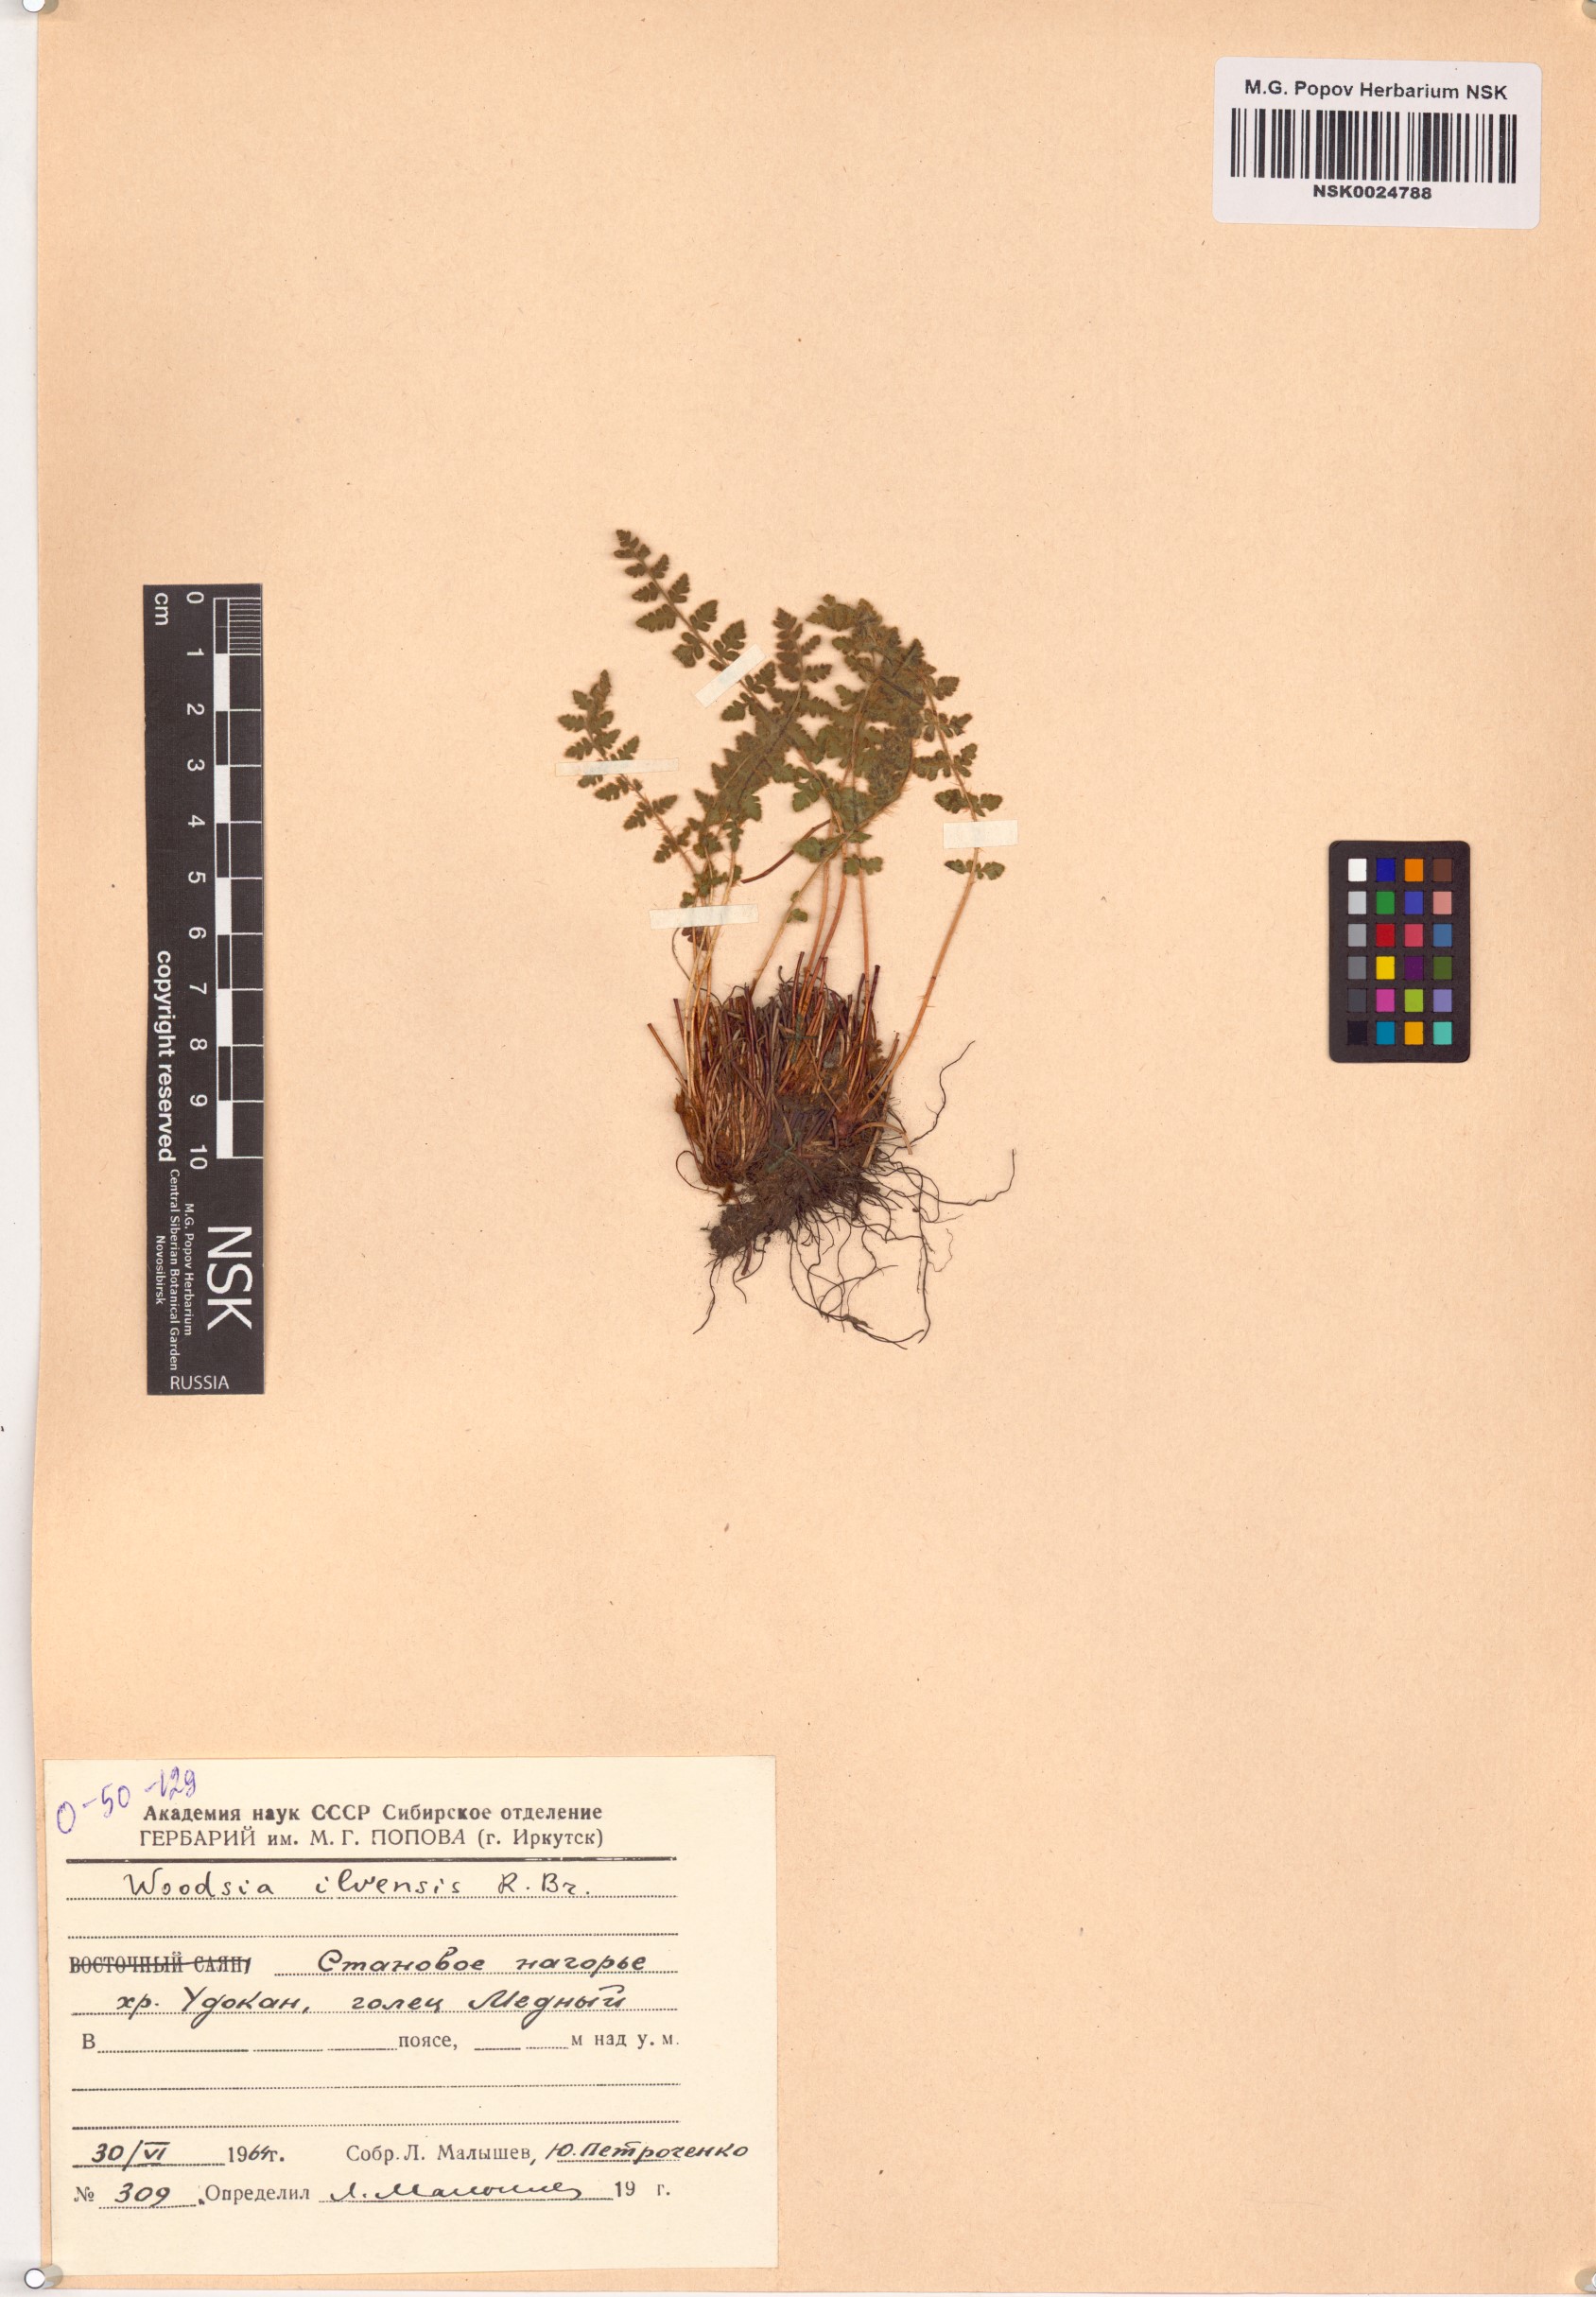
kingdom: Plantae
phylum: Tracheophyta
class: Polypodiopsida
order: Polypodiales
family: Woodsiaceae
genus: Woodsia
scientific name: Woodsia ilvensis
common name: Fragrant woodsia
